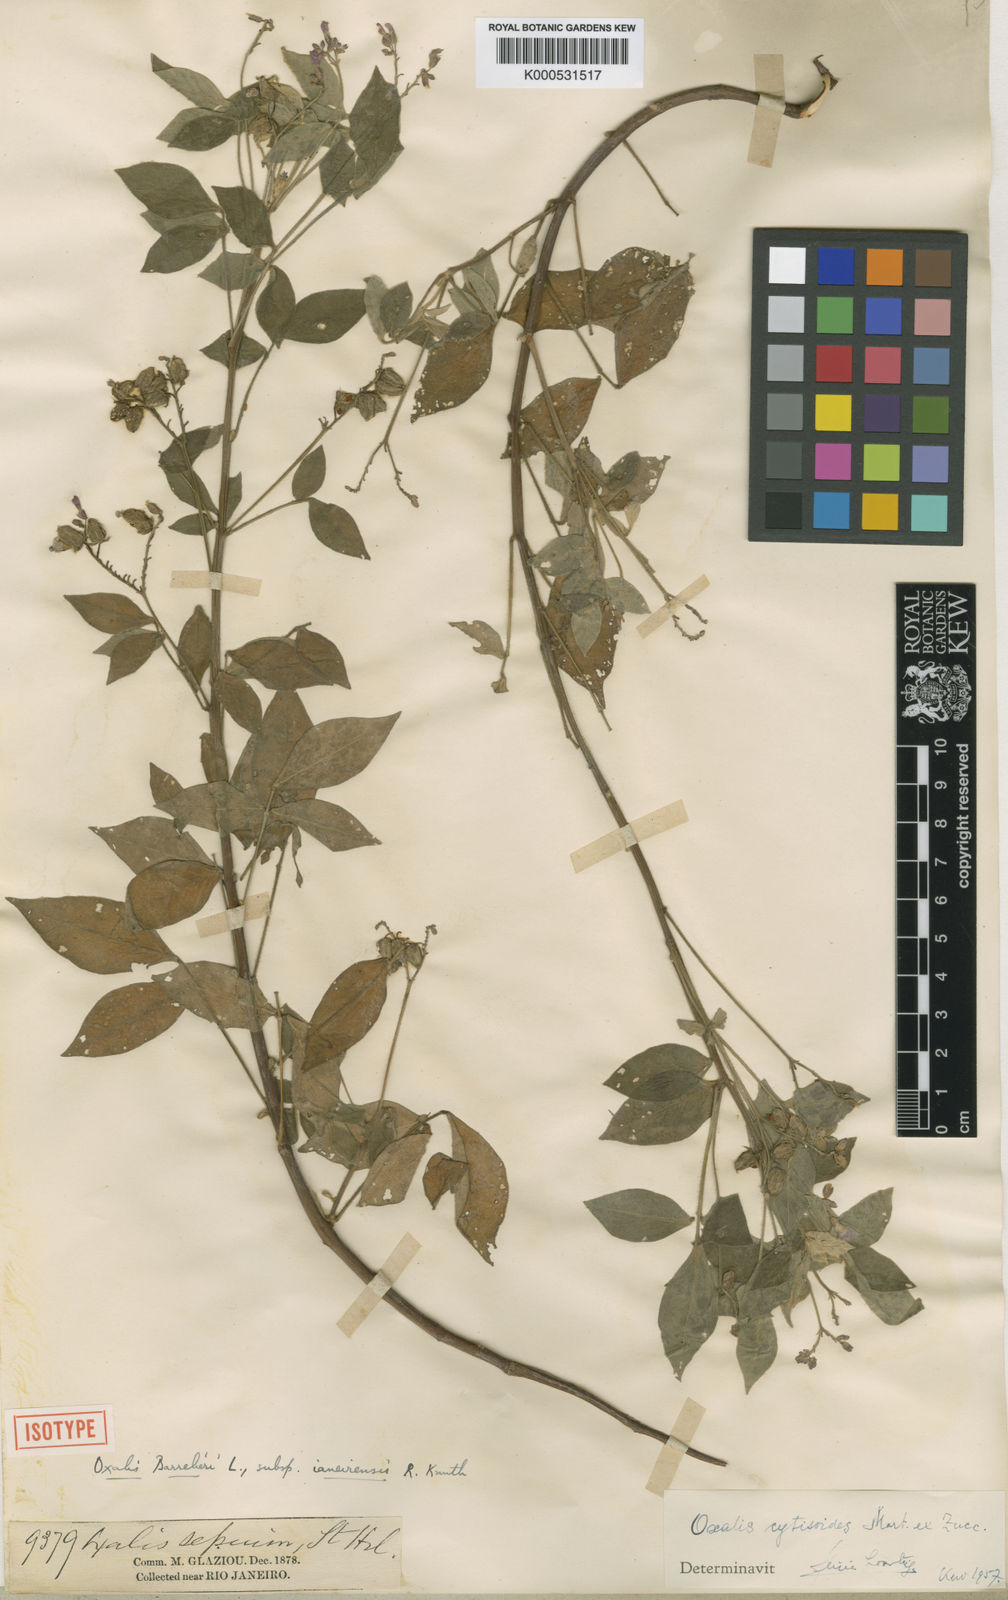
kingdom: Plantae
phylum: Tracheophyta
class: Magnoliopsida
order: Oxalidales
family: Oxalidaceae
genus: Oxalis
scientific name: Oxalis cytisoides
